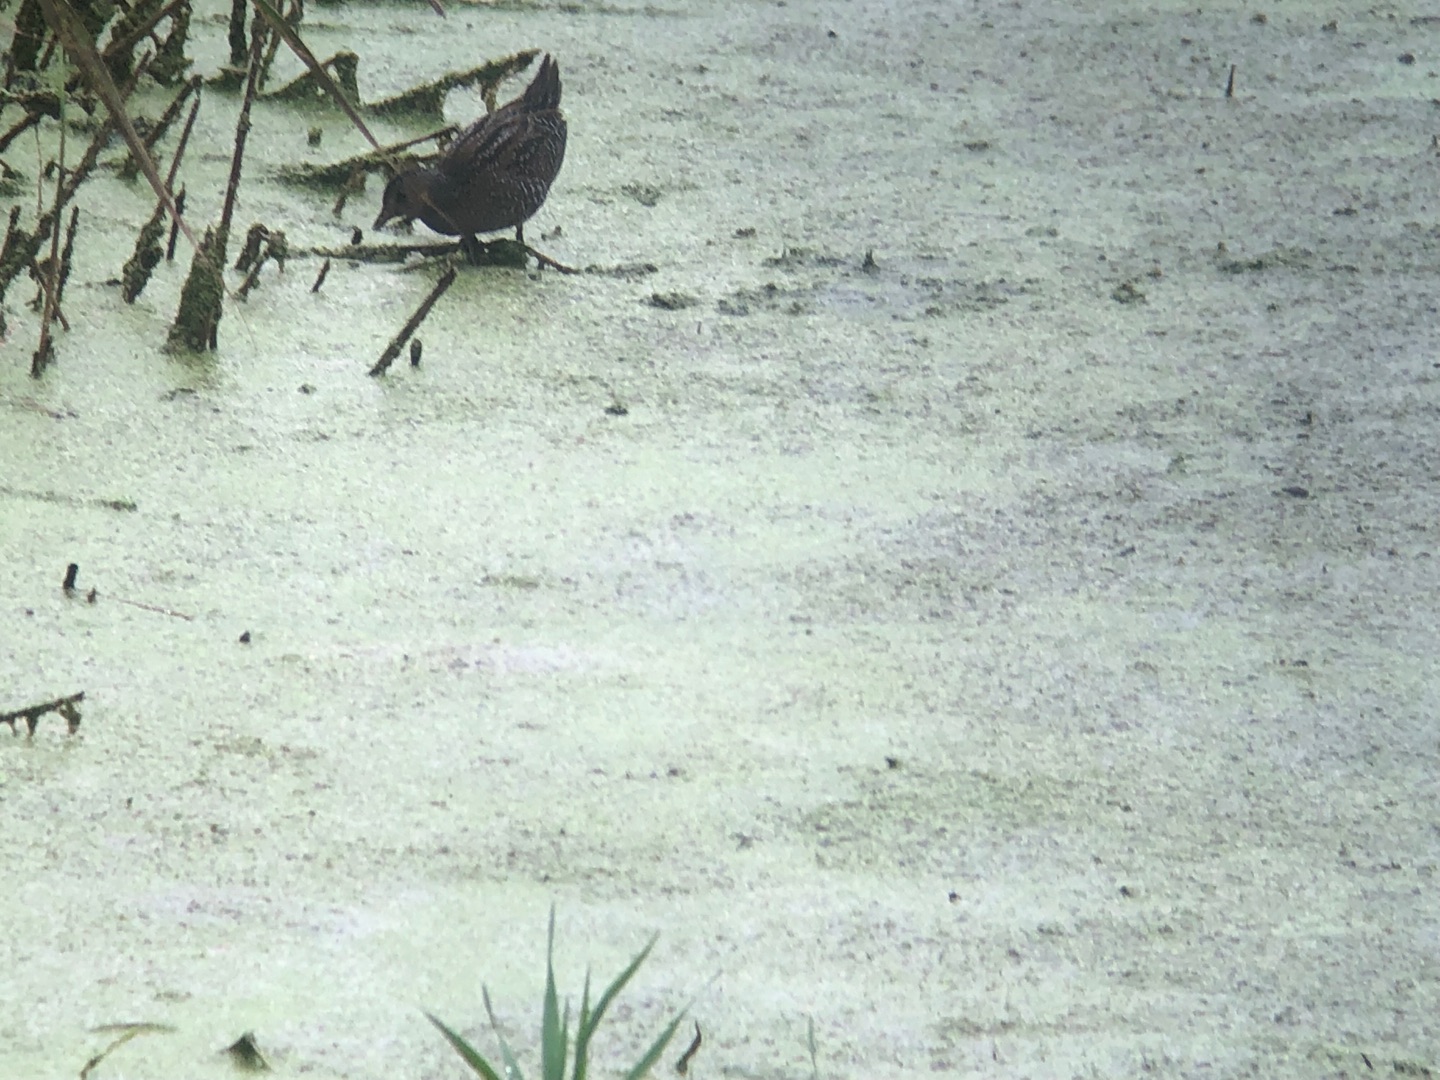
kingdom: Animalia
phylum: Chordata
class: Aves
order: Gruiformes
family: Rallidae
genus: Porzana
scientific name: Porzana porzana
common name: Plettet rørvagtel
